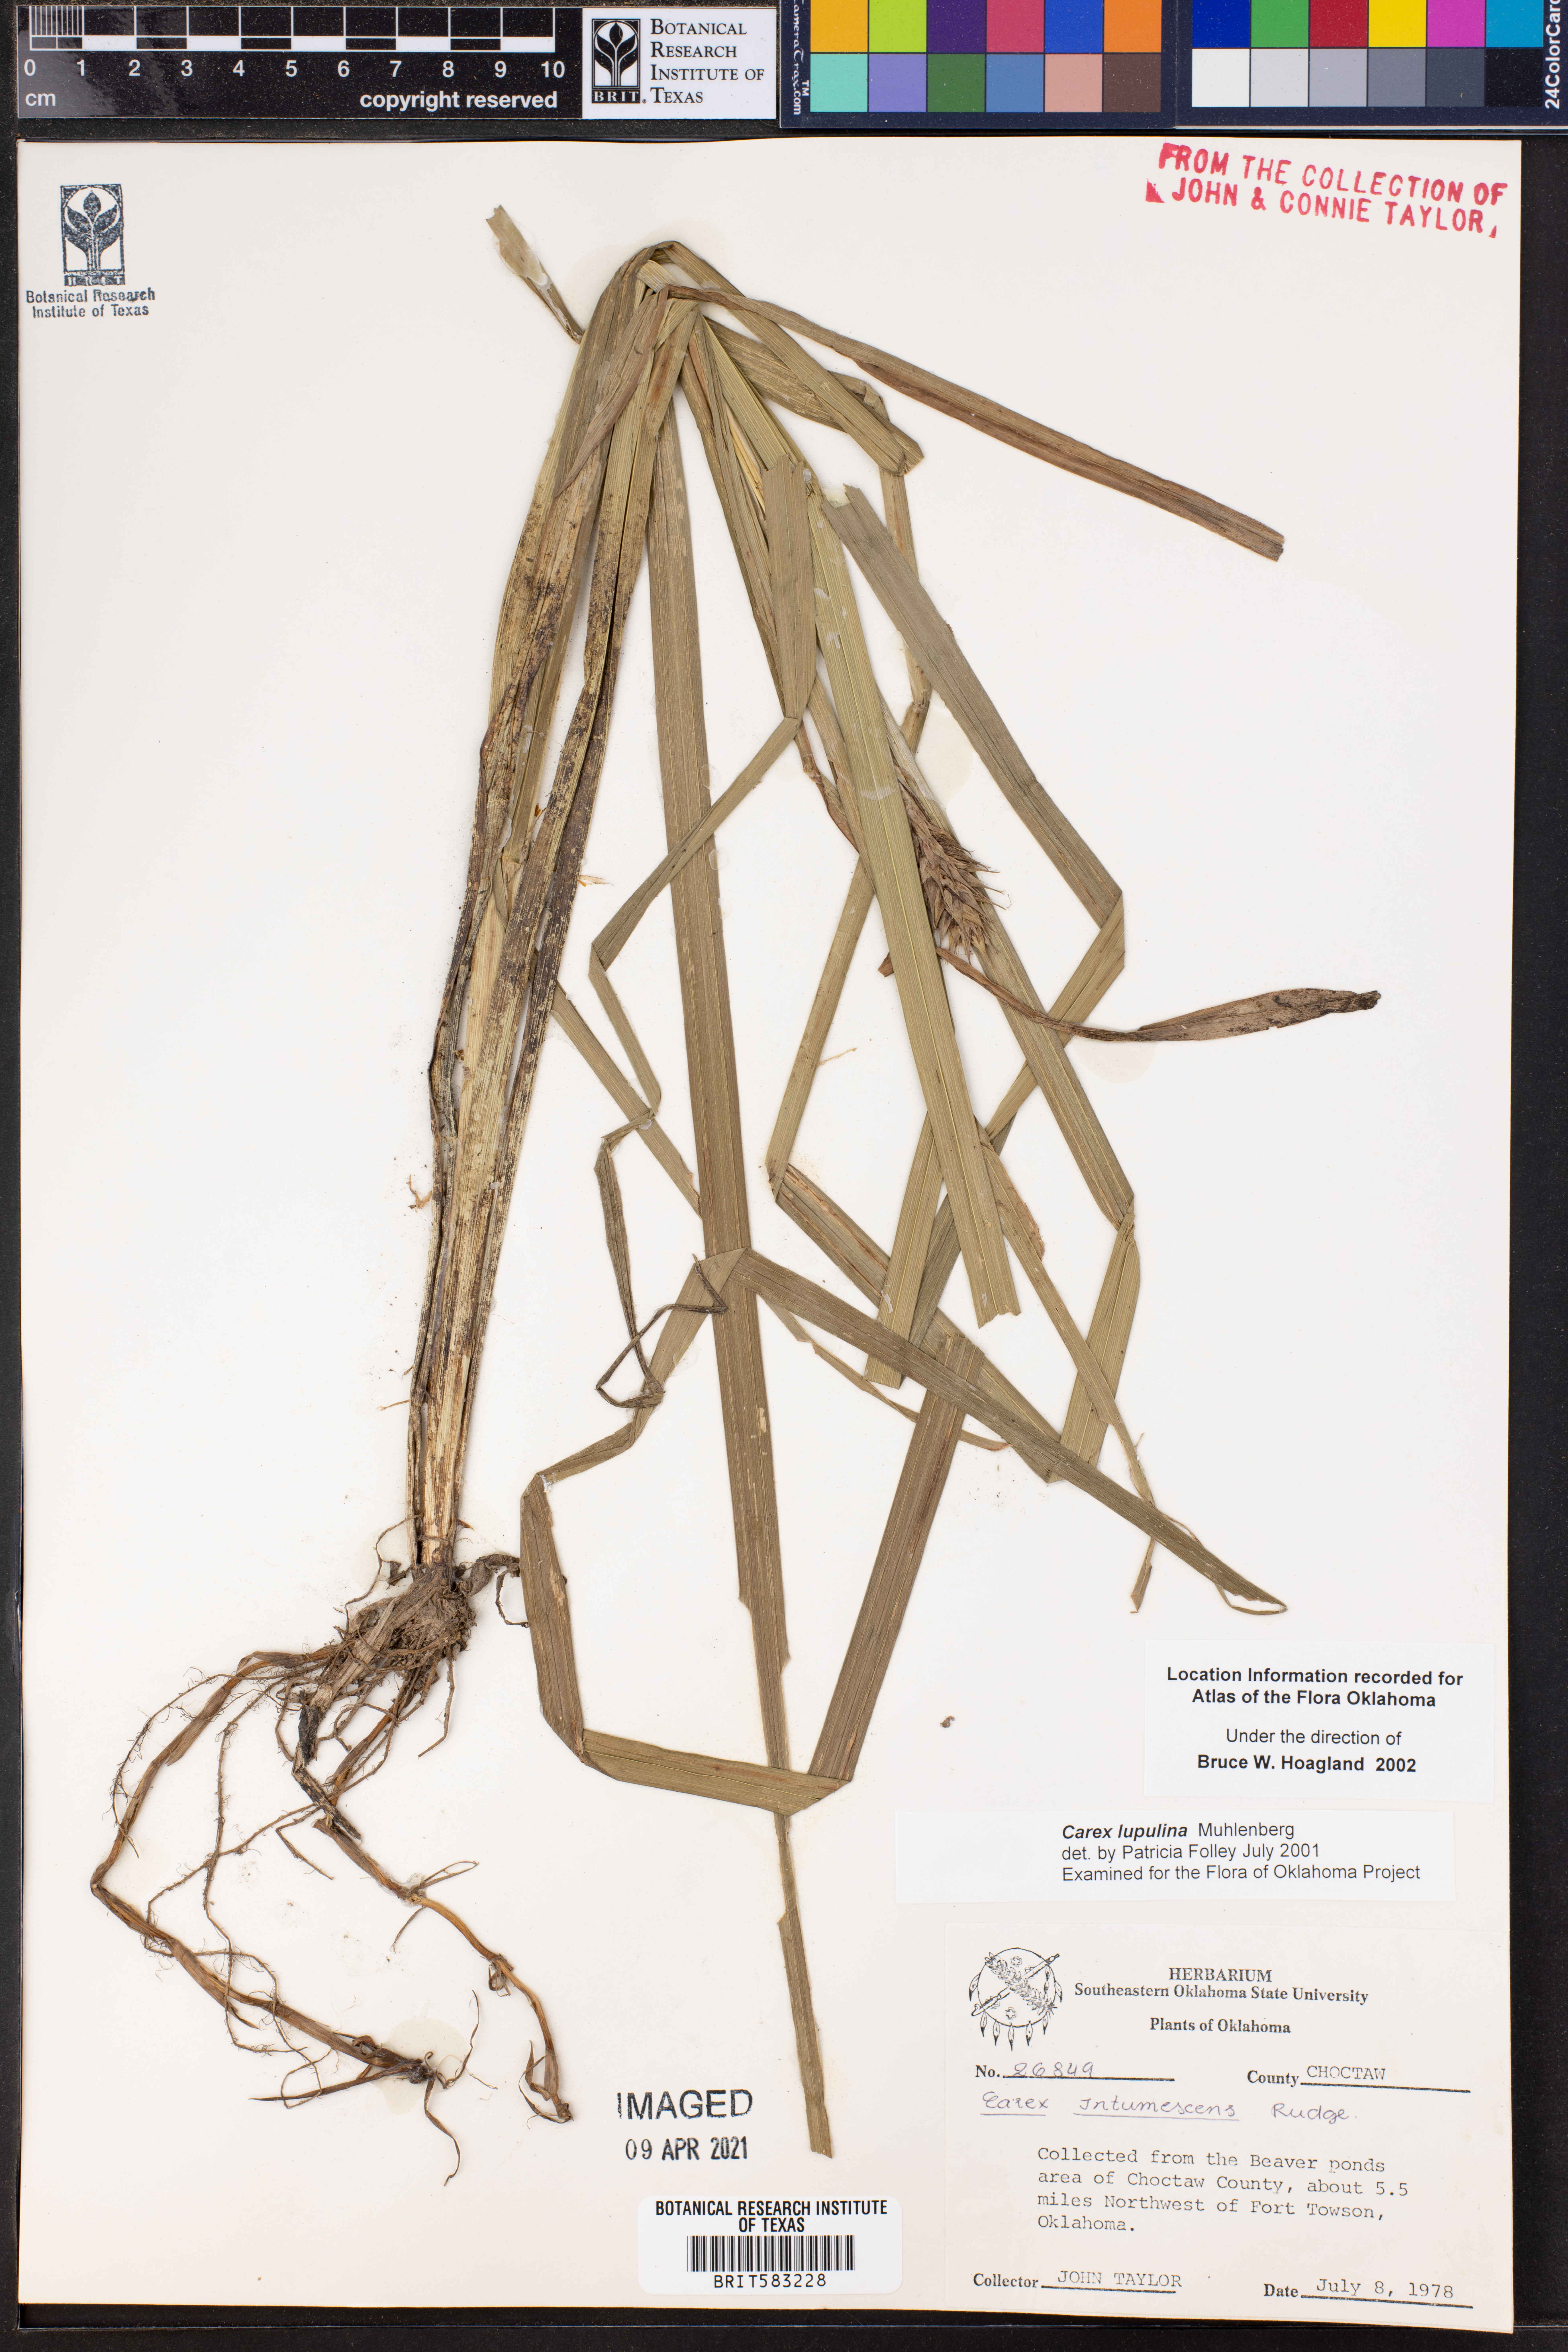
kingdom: Plantae
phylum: Tracheophyta
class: Liliopsida
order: Poales
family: Cyperaceae
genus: Carex
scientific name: Carex lupulina
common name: Hop sedge
